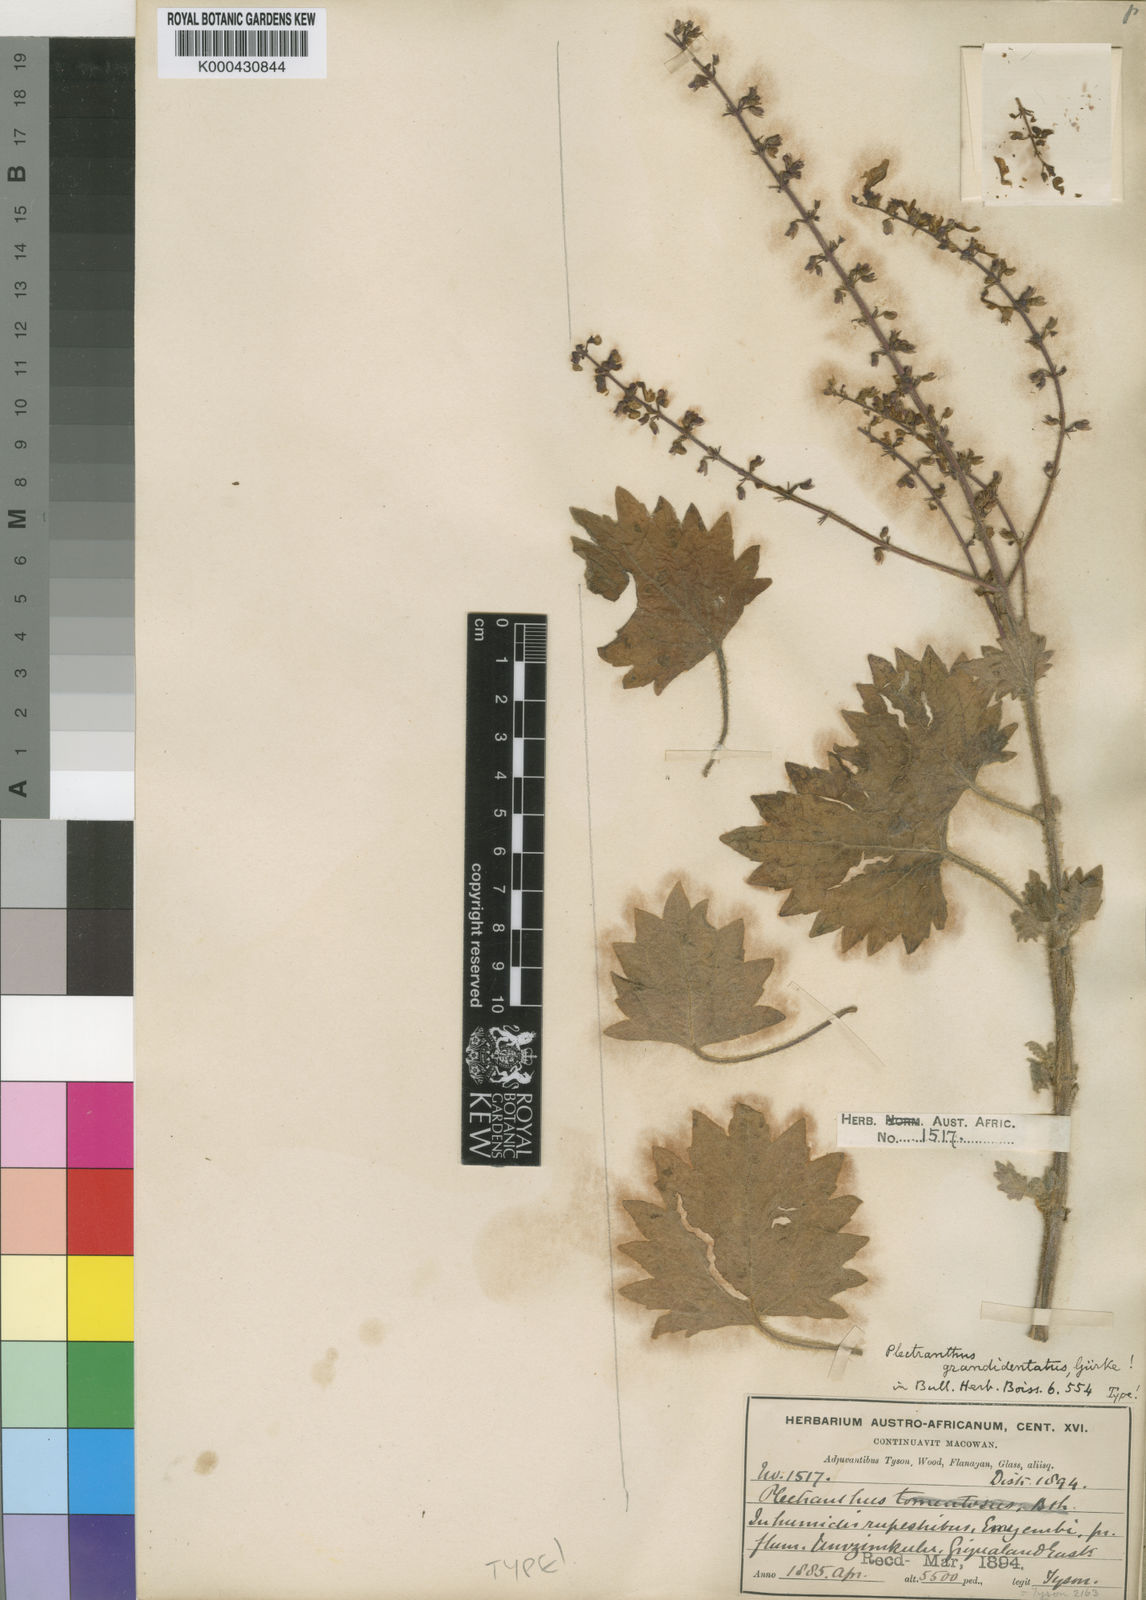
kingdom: Plantae
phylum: Tracheophyta
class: Magnoliopsida
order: Lamiales
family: Lamiaceae
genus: Plectranthus
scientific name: Plectranthus
